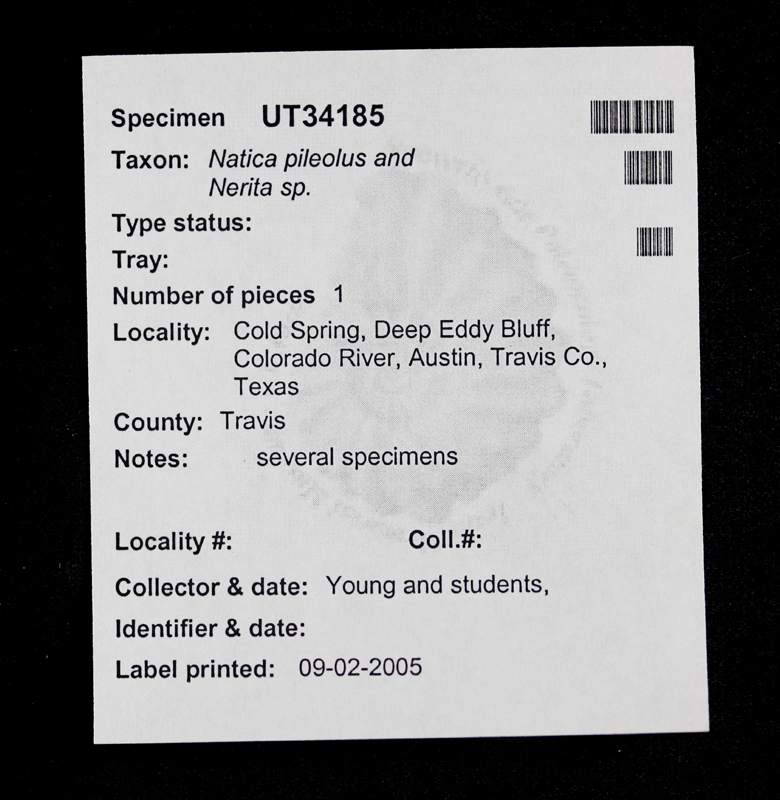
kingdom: Animalia
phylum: Mollusca
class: Gastropoda
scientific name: Gastropoda
